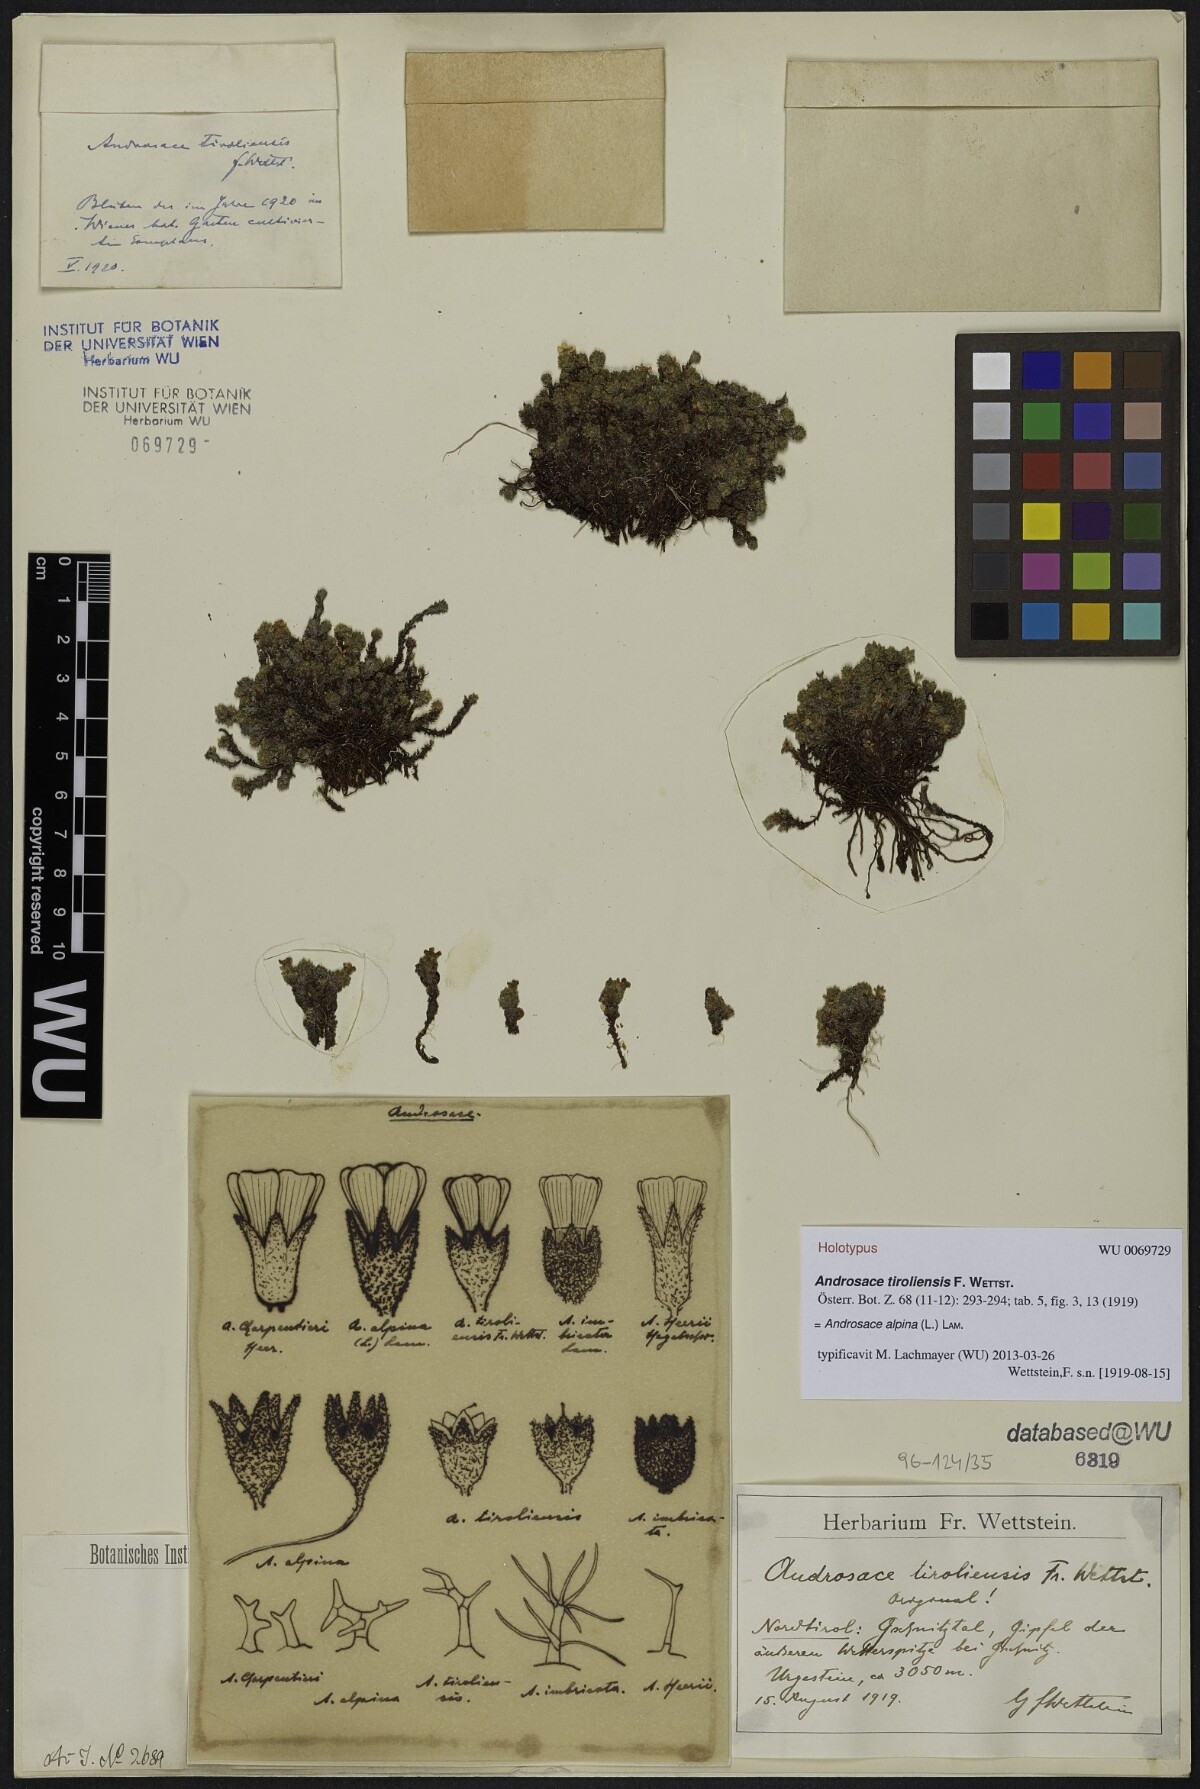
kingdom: Plantae
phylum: Tracheophyta
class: Magnoliopsida
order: Ericales
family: Primulaceae
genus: Androsace
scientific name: Androsace alpina
